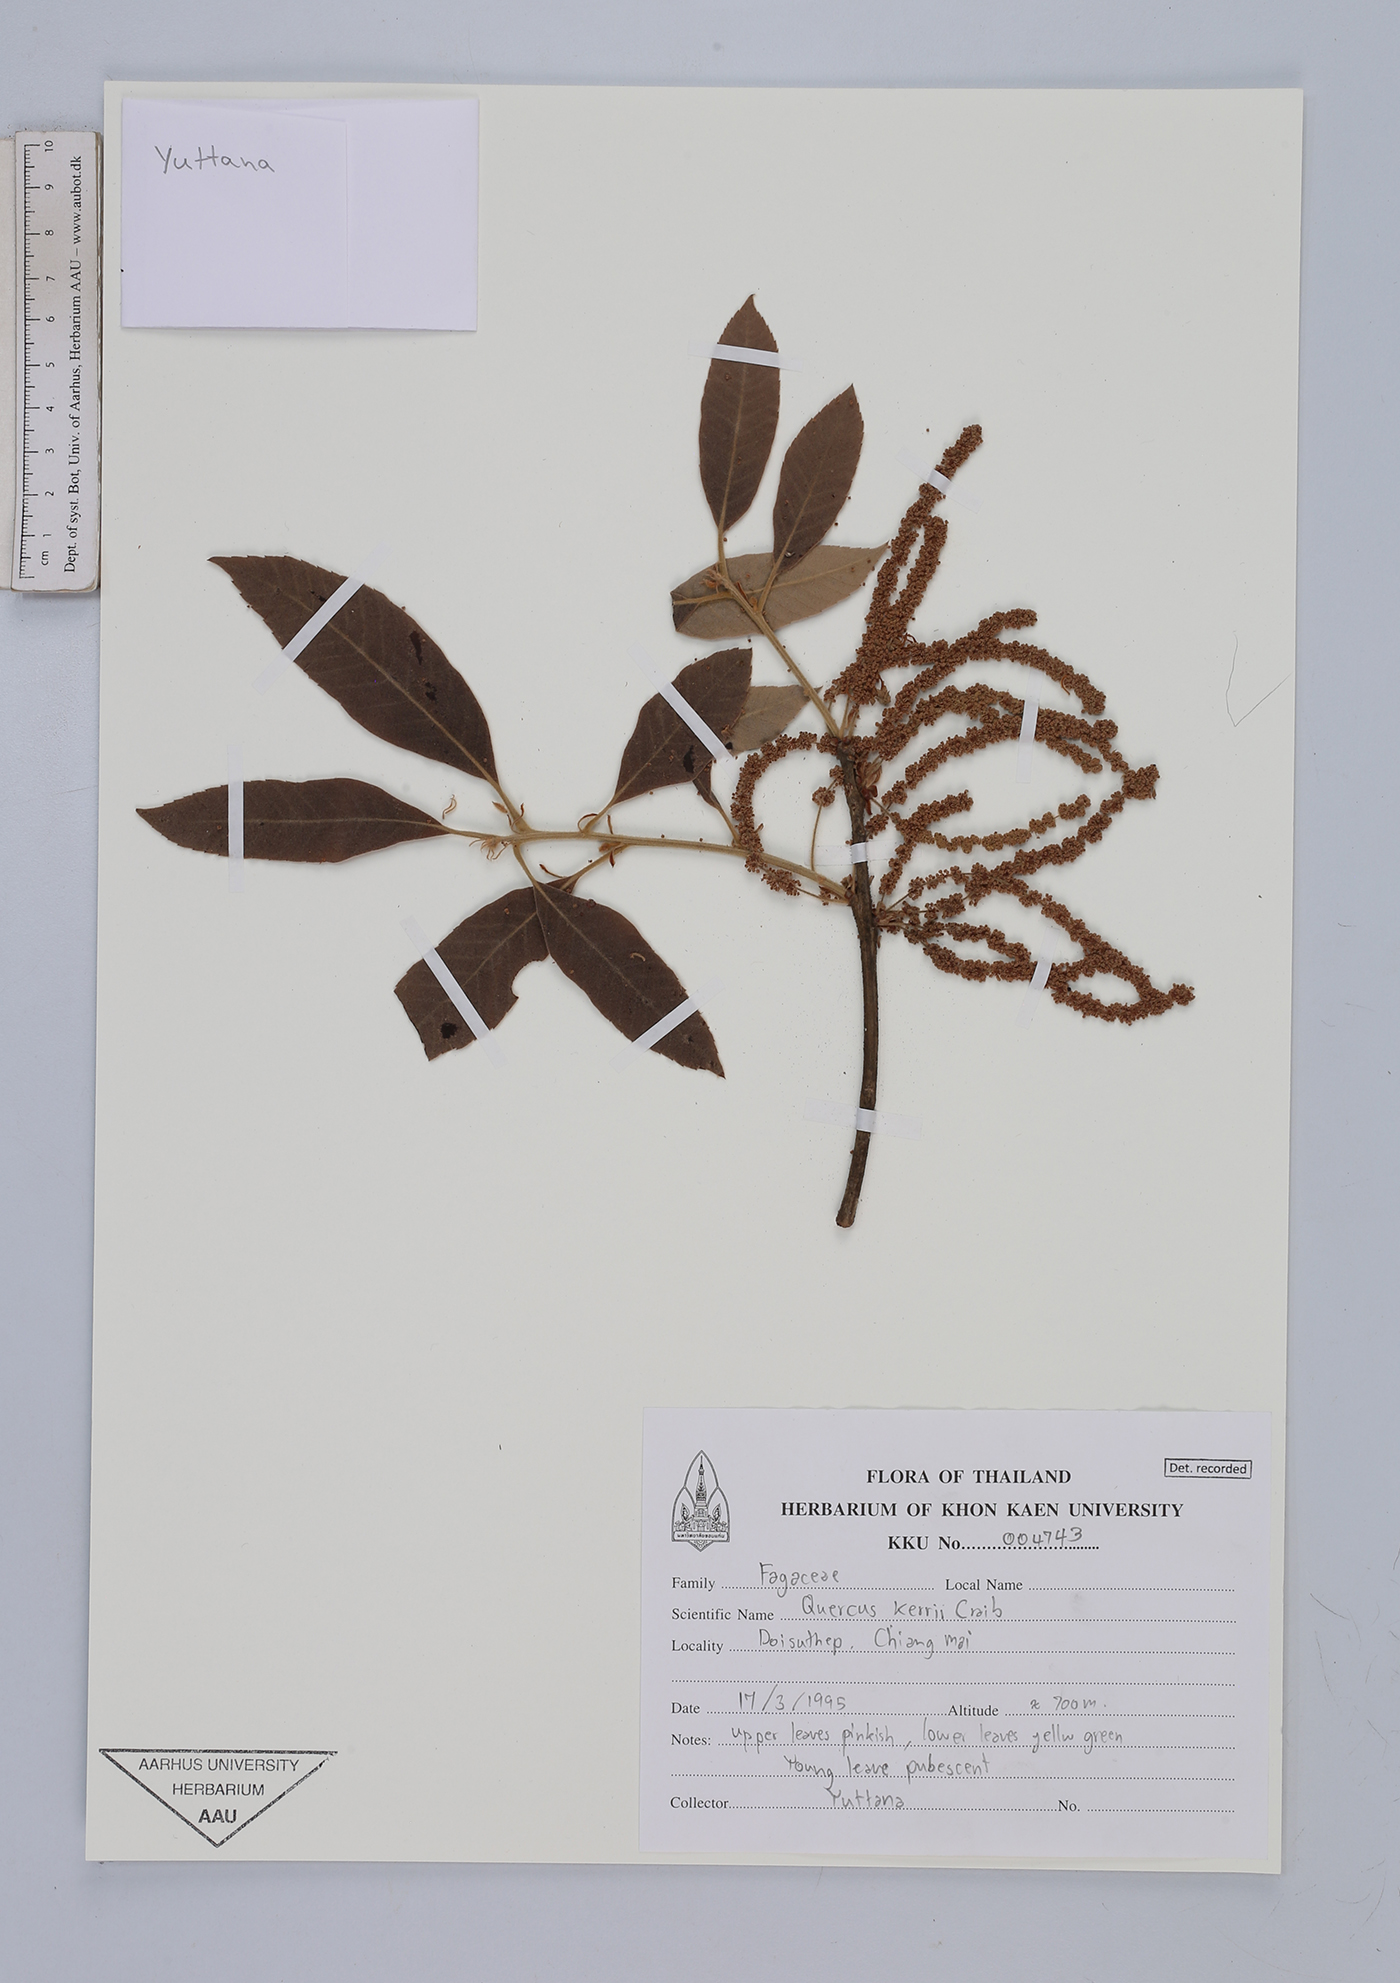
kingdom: Plantae
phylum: Tracheophyta
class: Magnoliopsida
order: Fagales
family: Fagaceae
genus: Quercus
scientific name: Quercus kerrii
